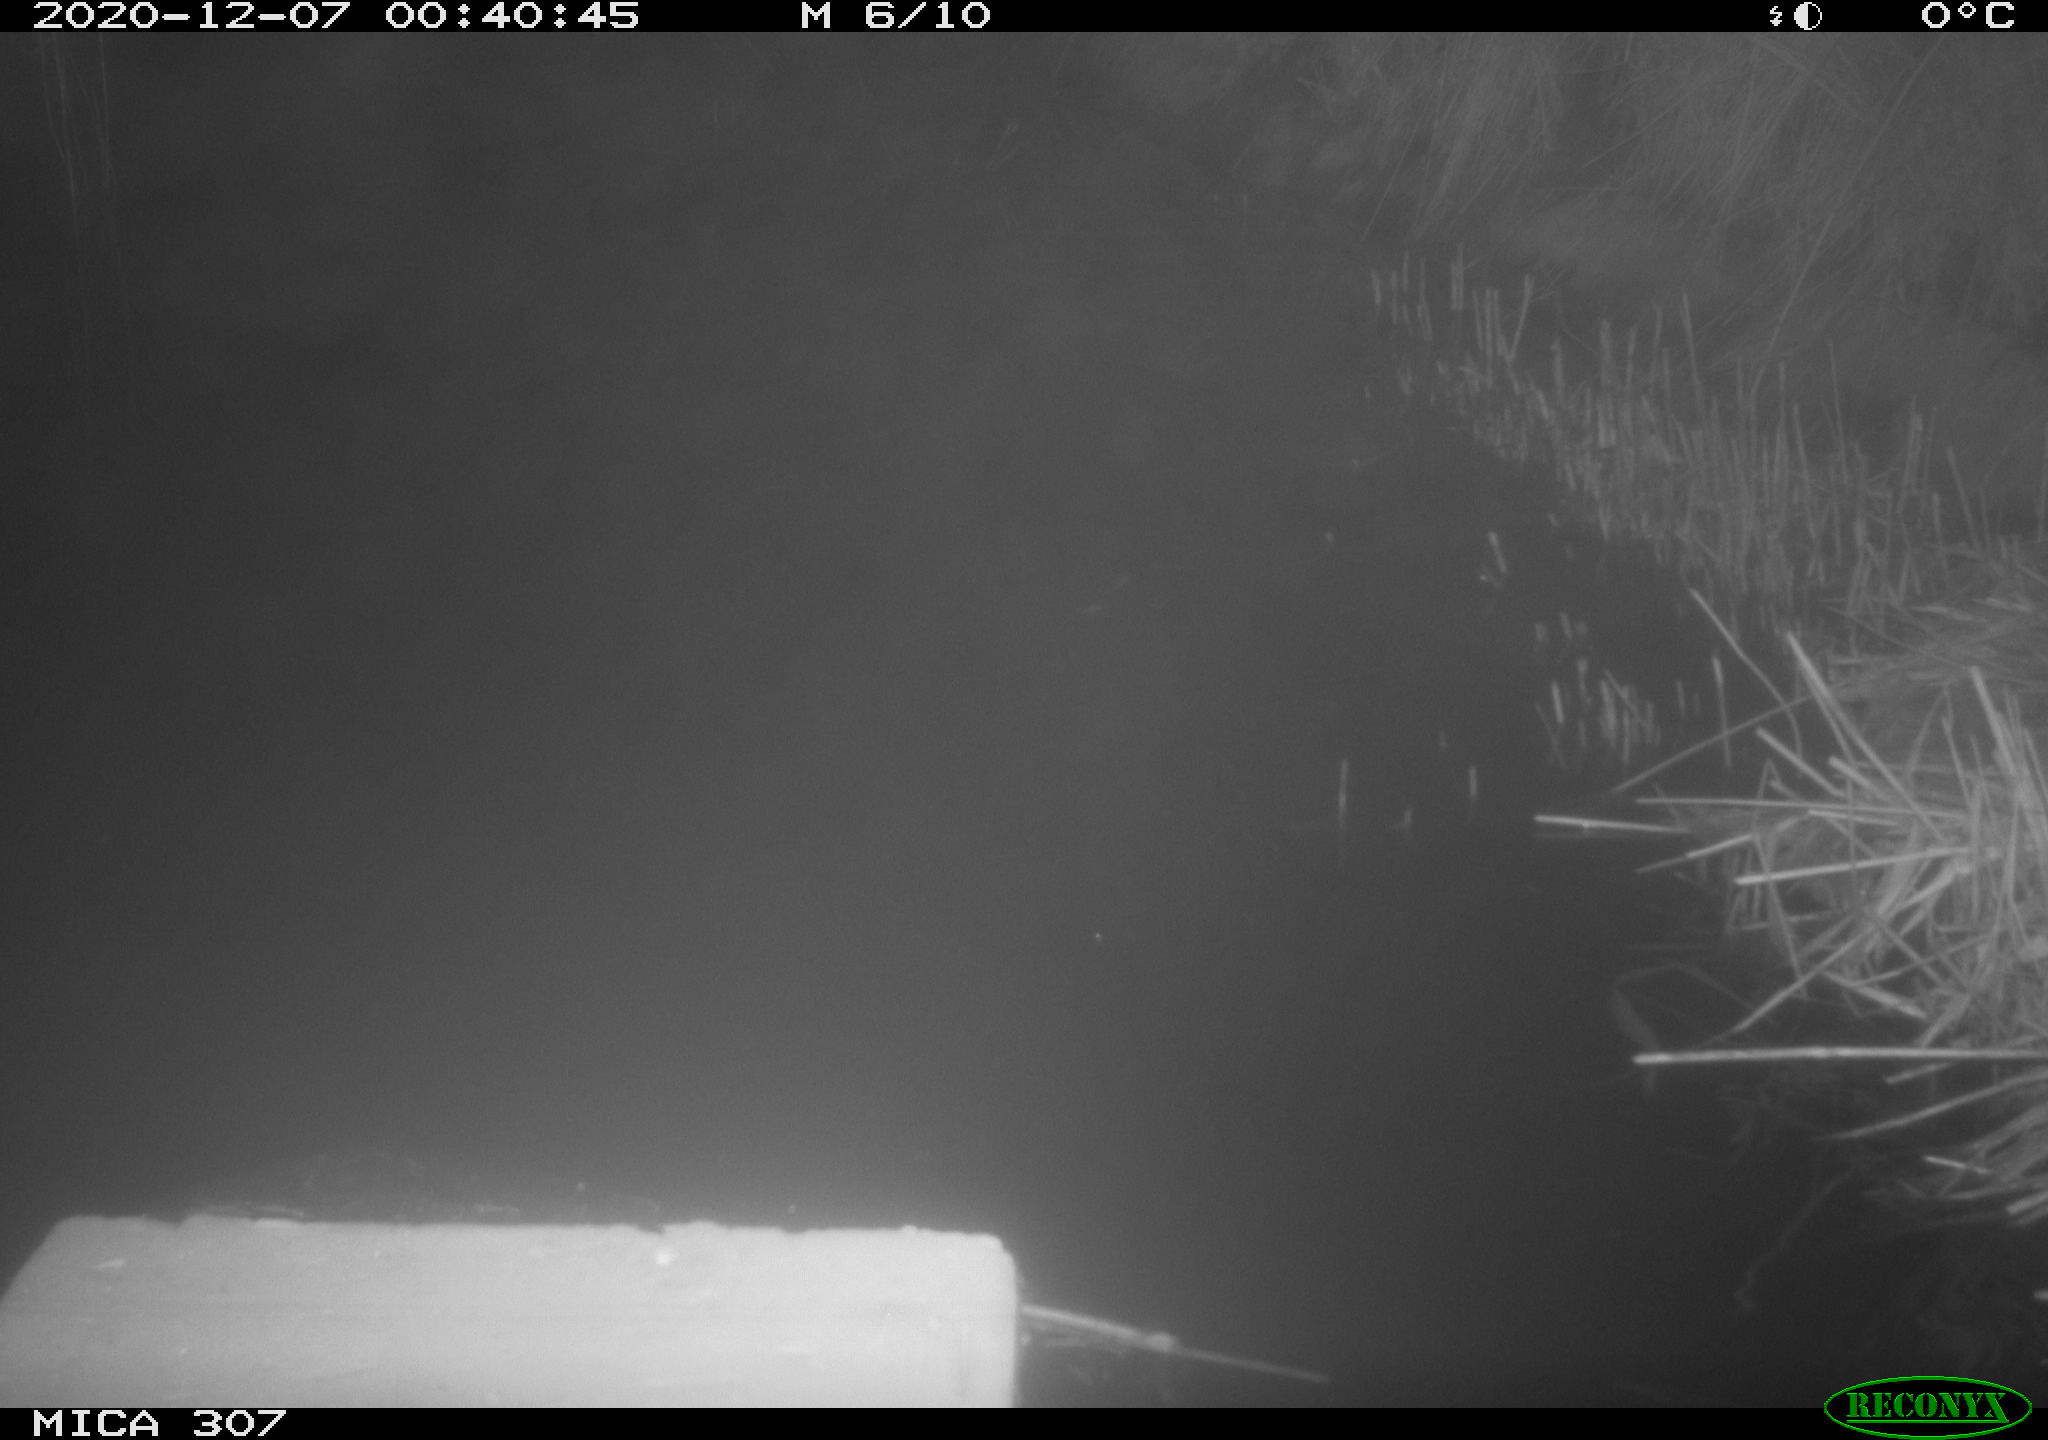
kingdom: Animalia
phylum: Chordata
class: Mammalia
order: Rodentia
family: Muridae
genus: Rattus
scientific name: Rattus norvegicus
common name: Brown rat
